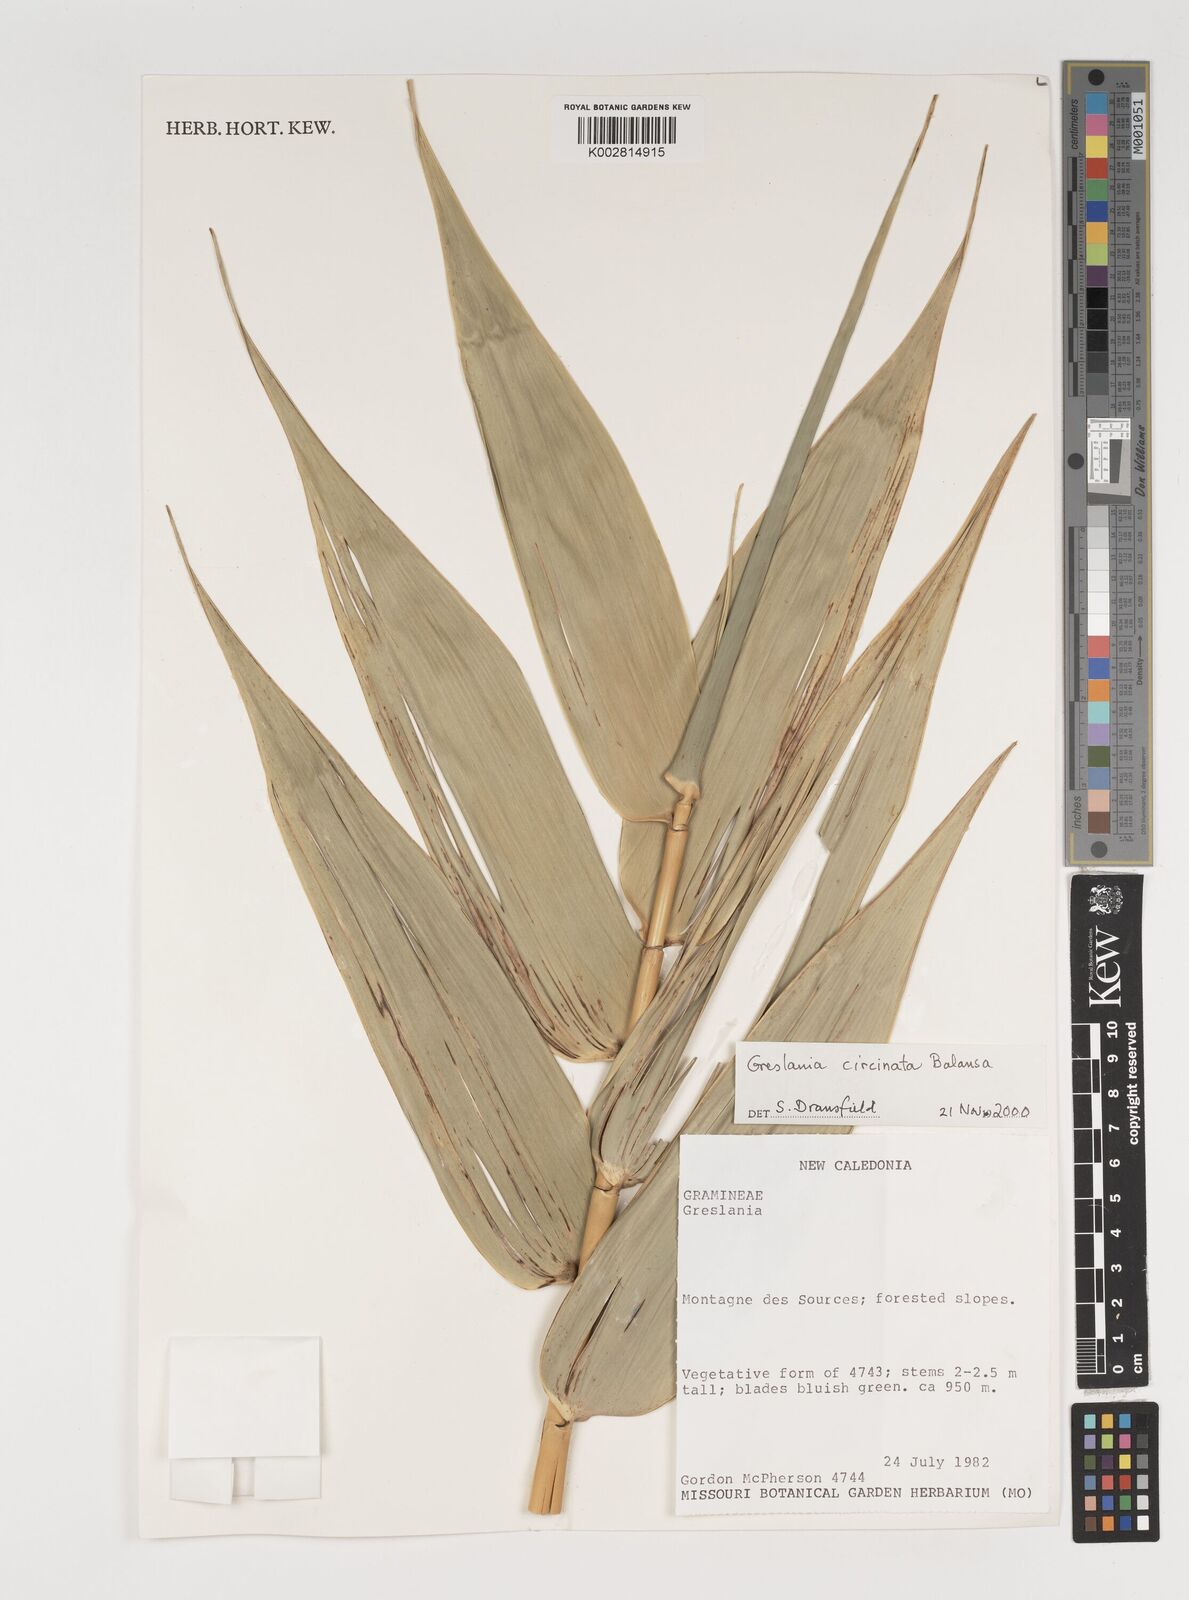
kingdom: Plantae
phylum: Tracheophyta
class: Liliopsida
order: Poales
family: Poaceae
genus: Greslania
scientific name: Greslania circinata
